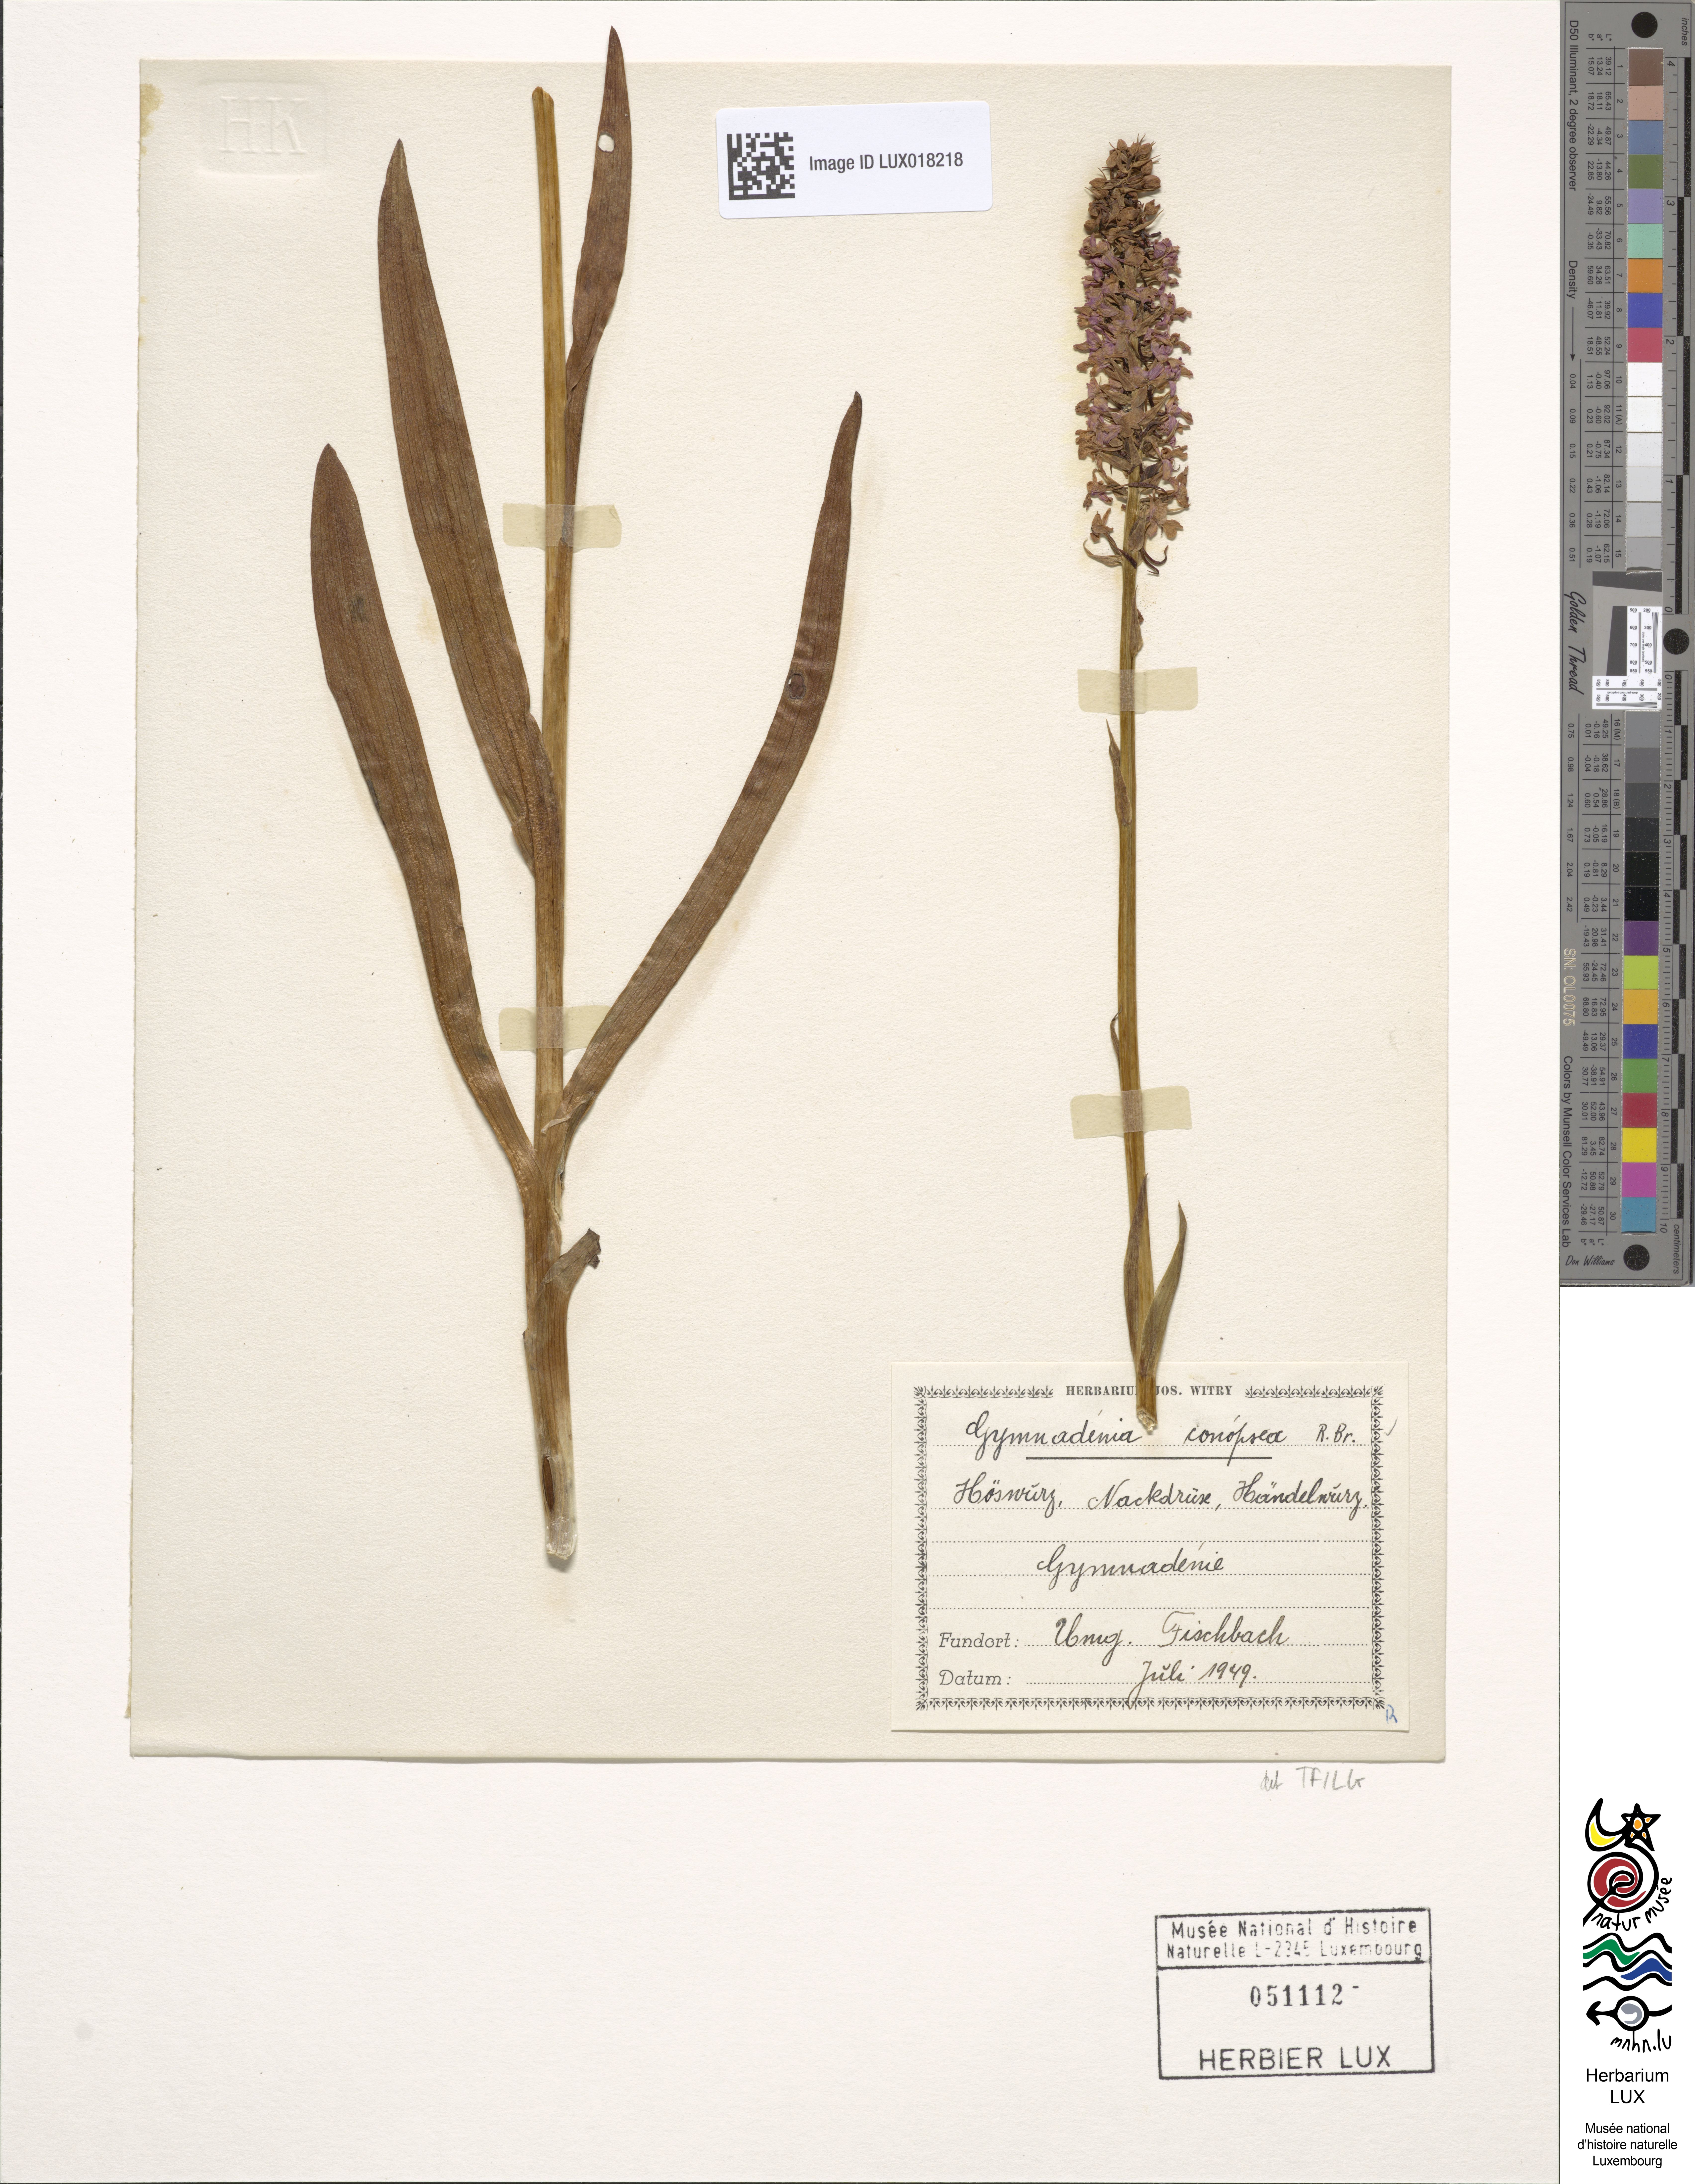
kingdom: Plantae
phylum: Tracheophyta
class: Liliopsida
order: Asparagales
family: Orchidaceae
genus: Gymnadenia
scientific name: Gymnadenia conopsea
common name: Fragrant orchid
